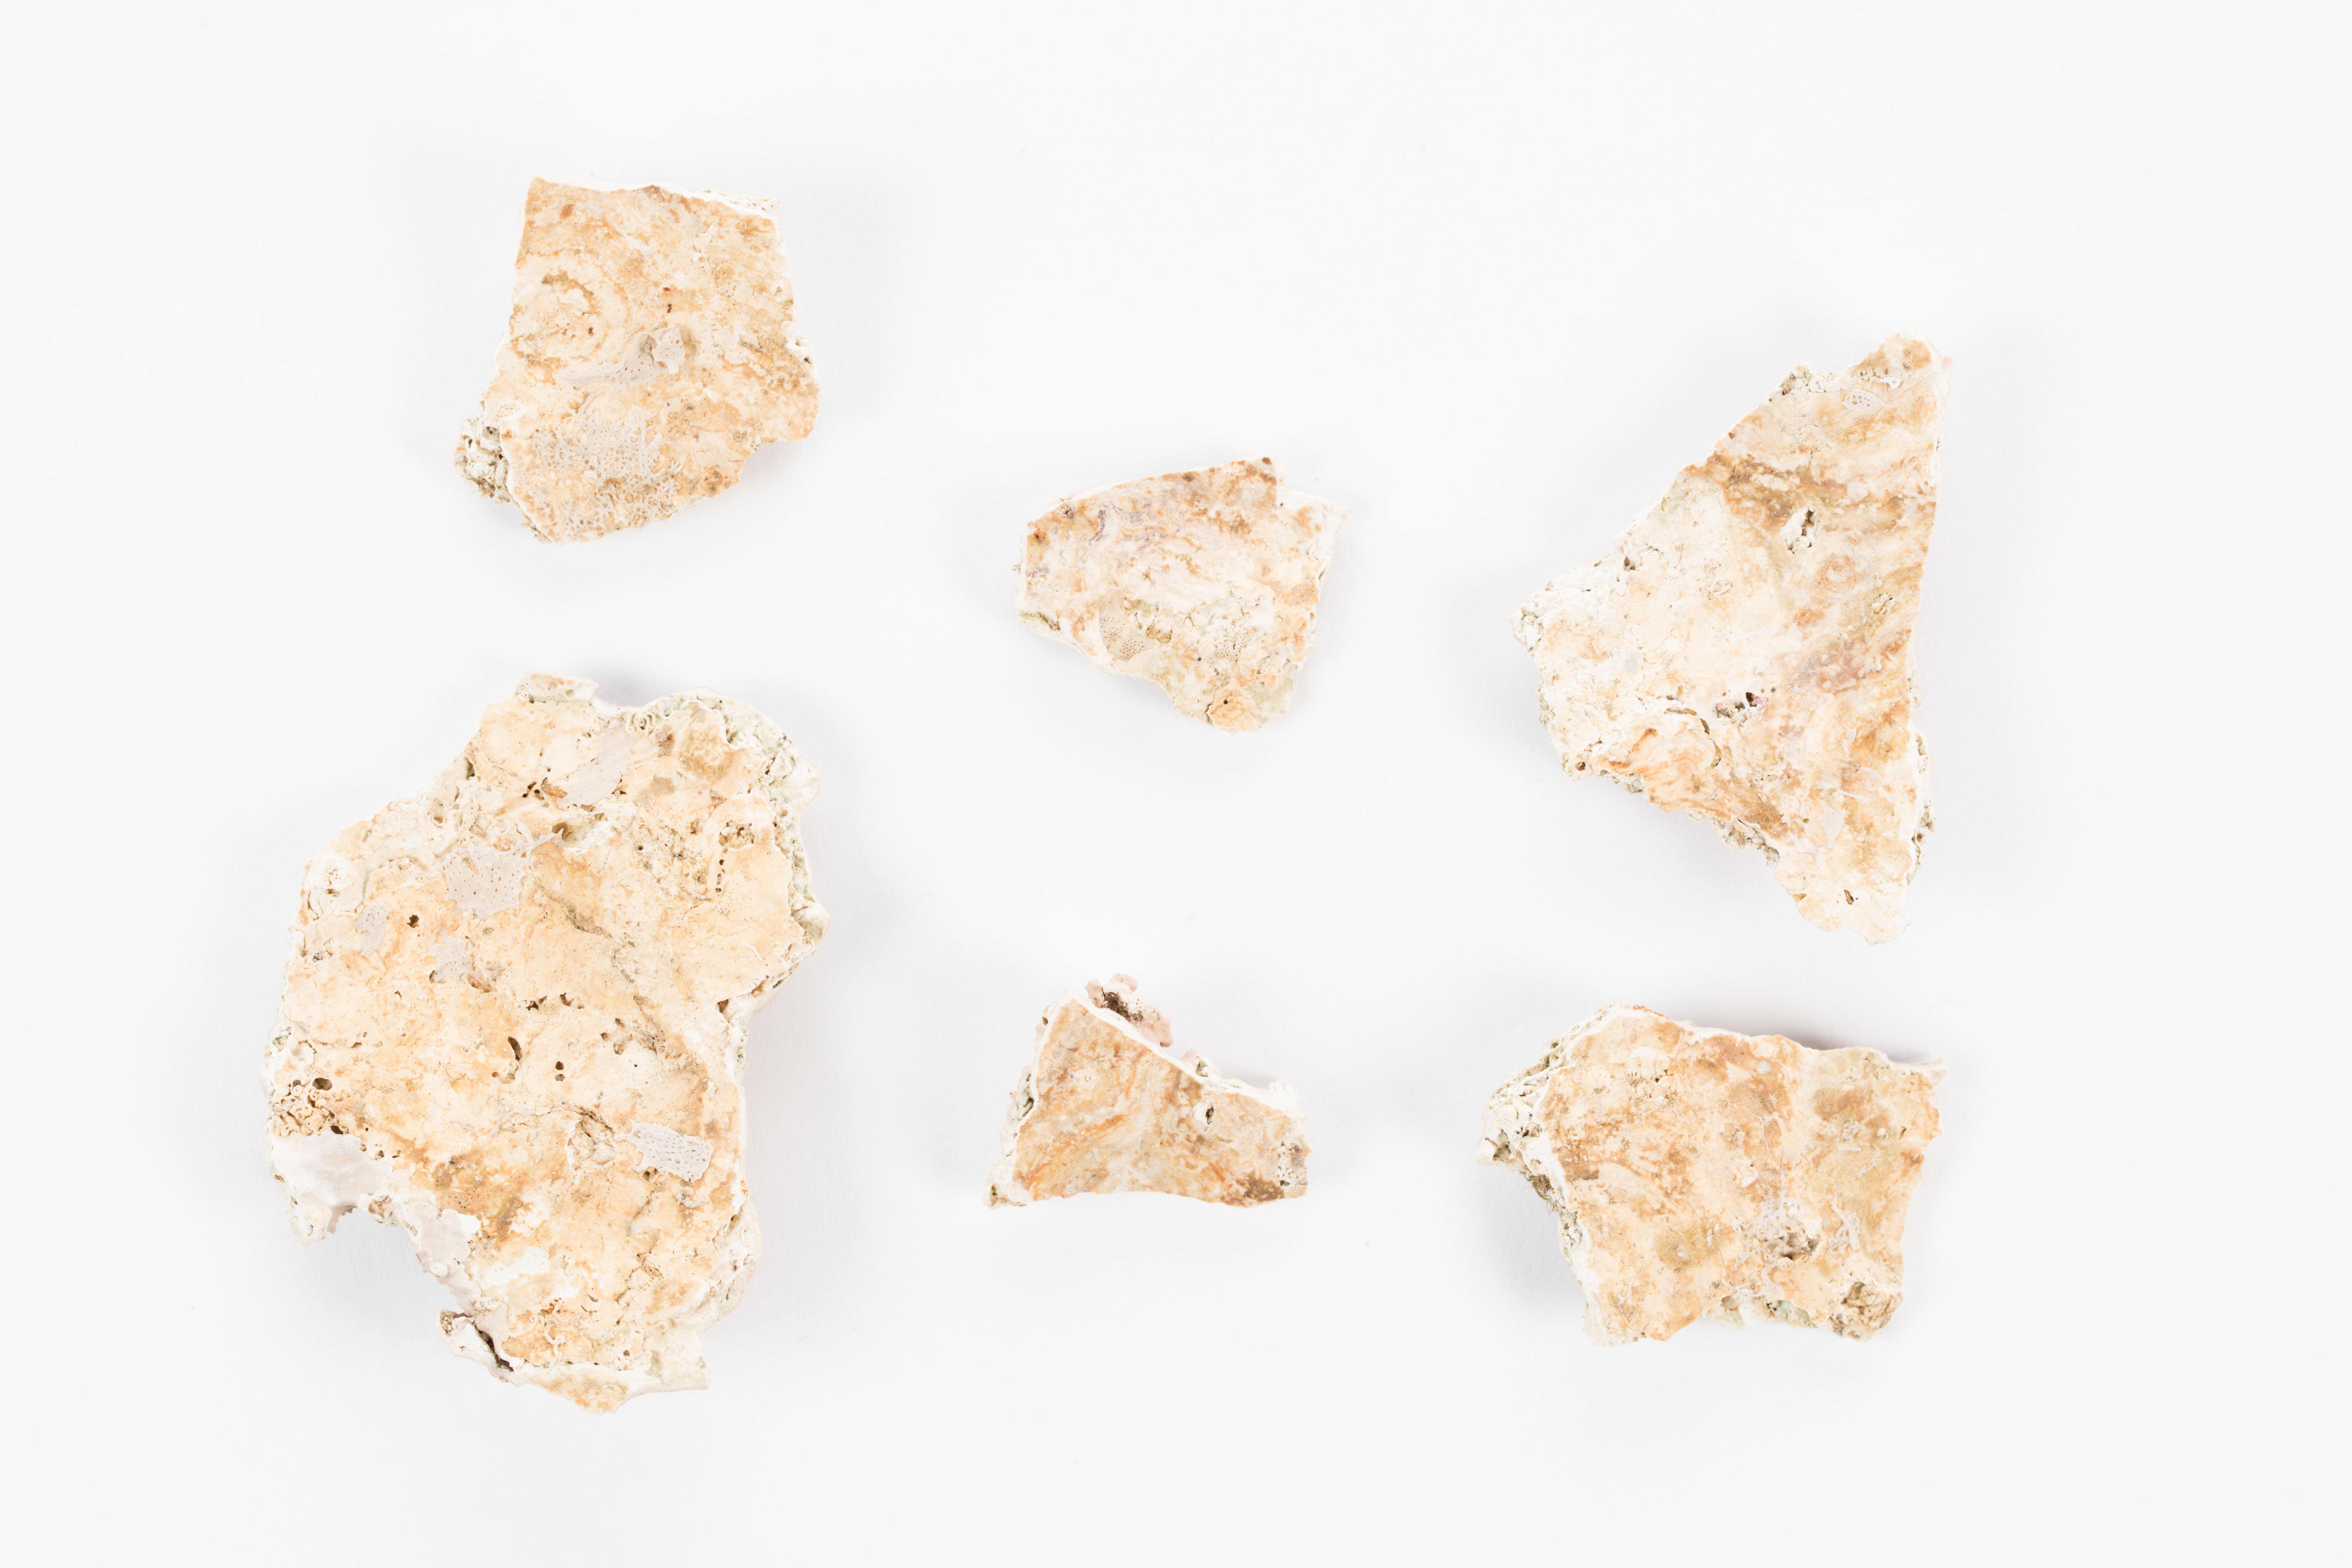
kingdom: Animalia
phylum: Cnidaria
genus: Lithophyllum
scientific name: Lithophyllum
